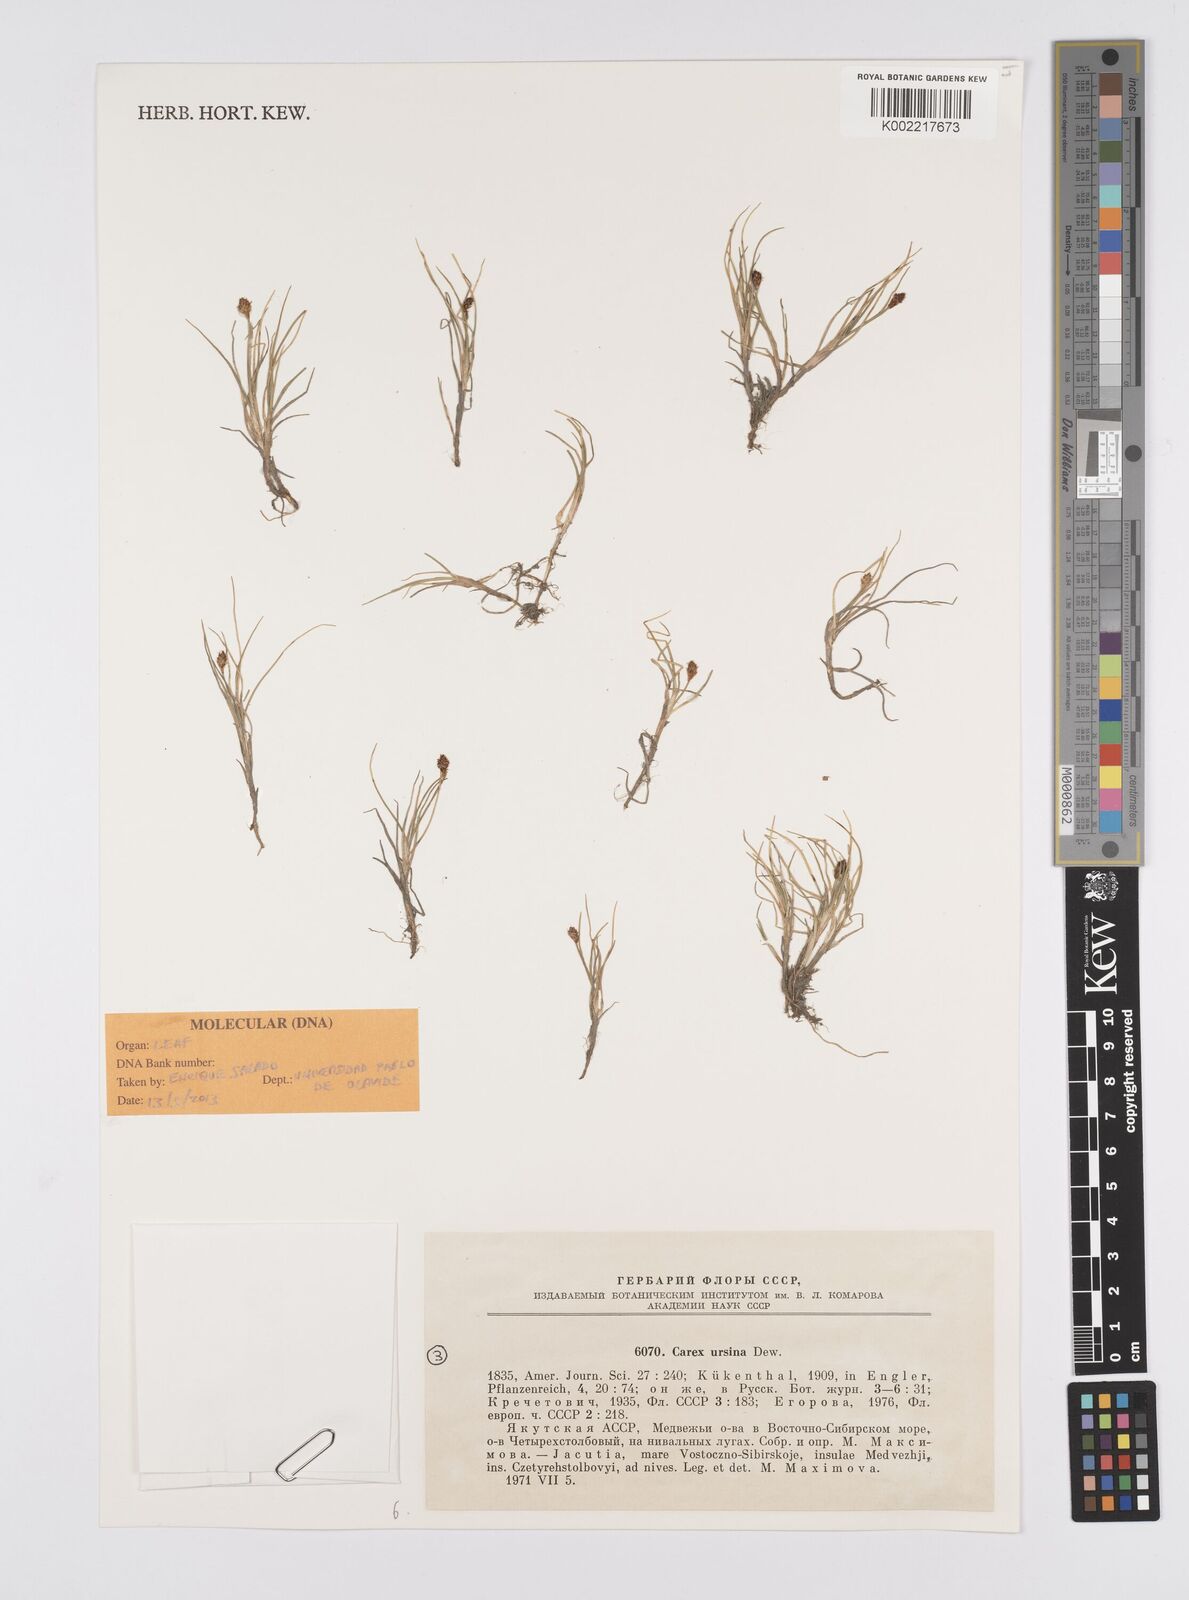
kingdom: Plantae
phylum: Tracheophyta
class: Liliopsida
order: Poales
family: Cyperaceae
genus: Carex
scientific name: Carex ursina
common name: Bear sedge
